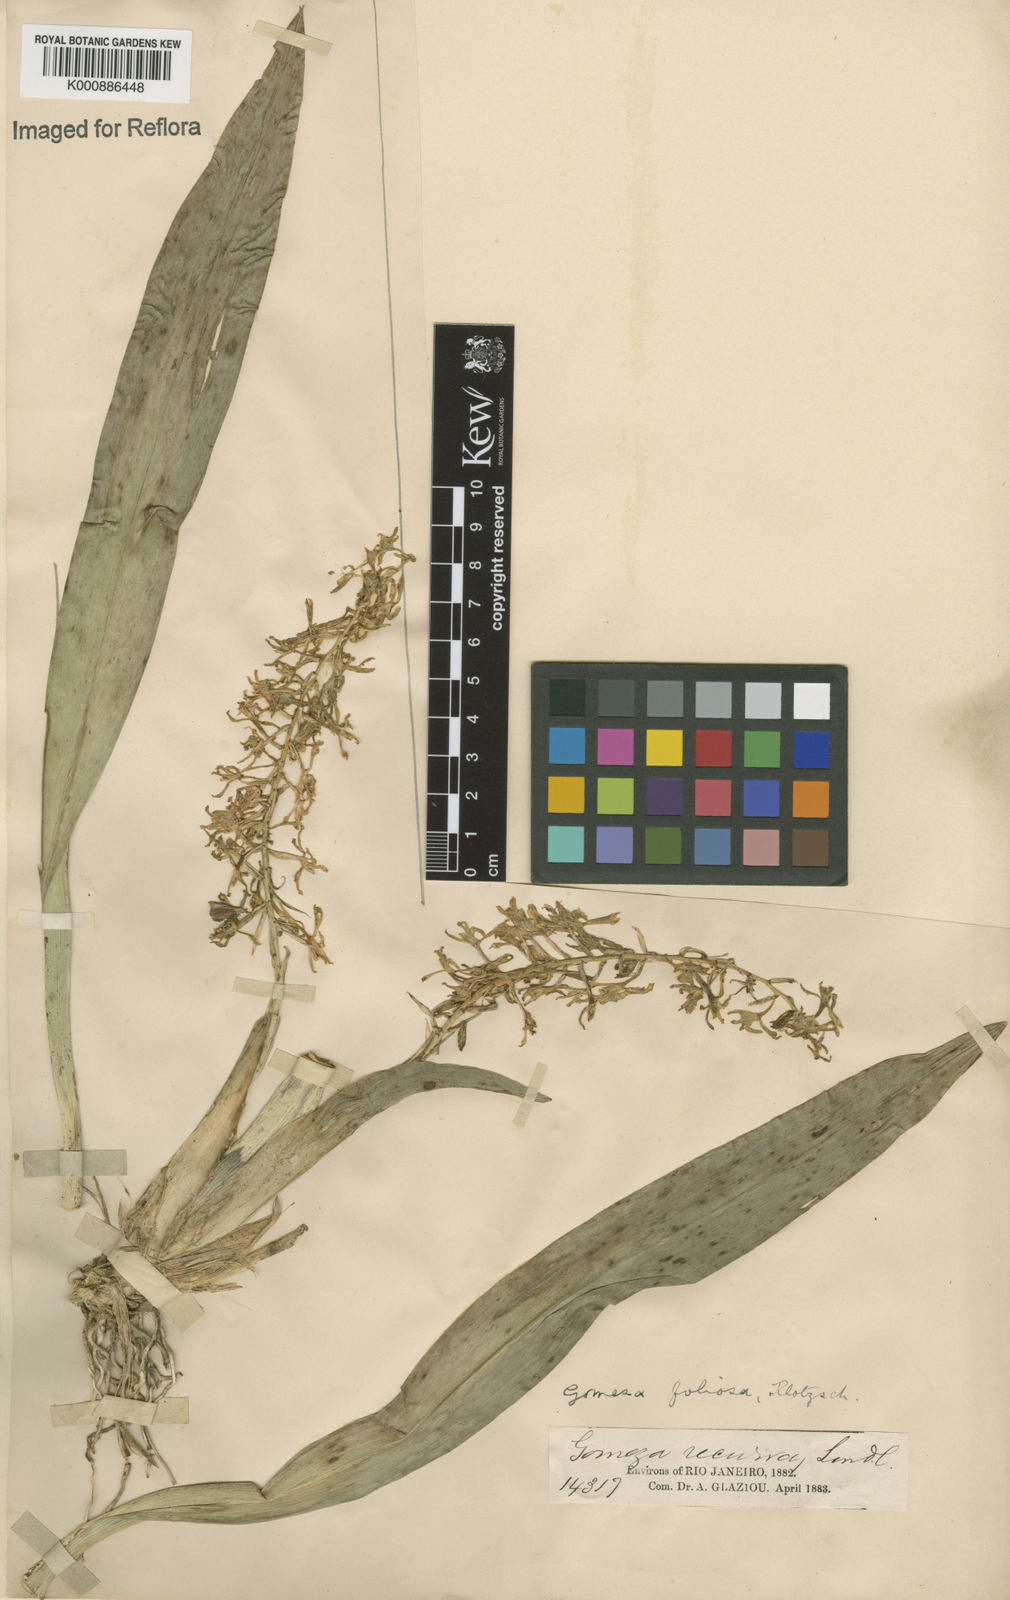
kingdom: Plantae
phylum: Tracheophyta
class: Liliopsida
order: Asparagales
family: Orchidaceae
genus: Gomesa
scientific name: Gomesa recurva
